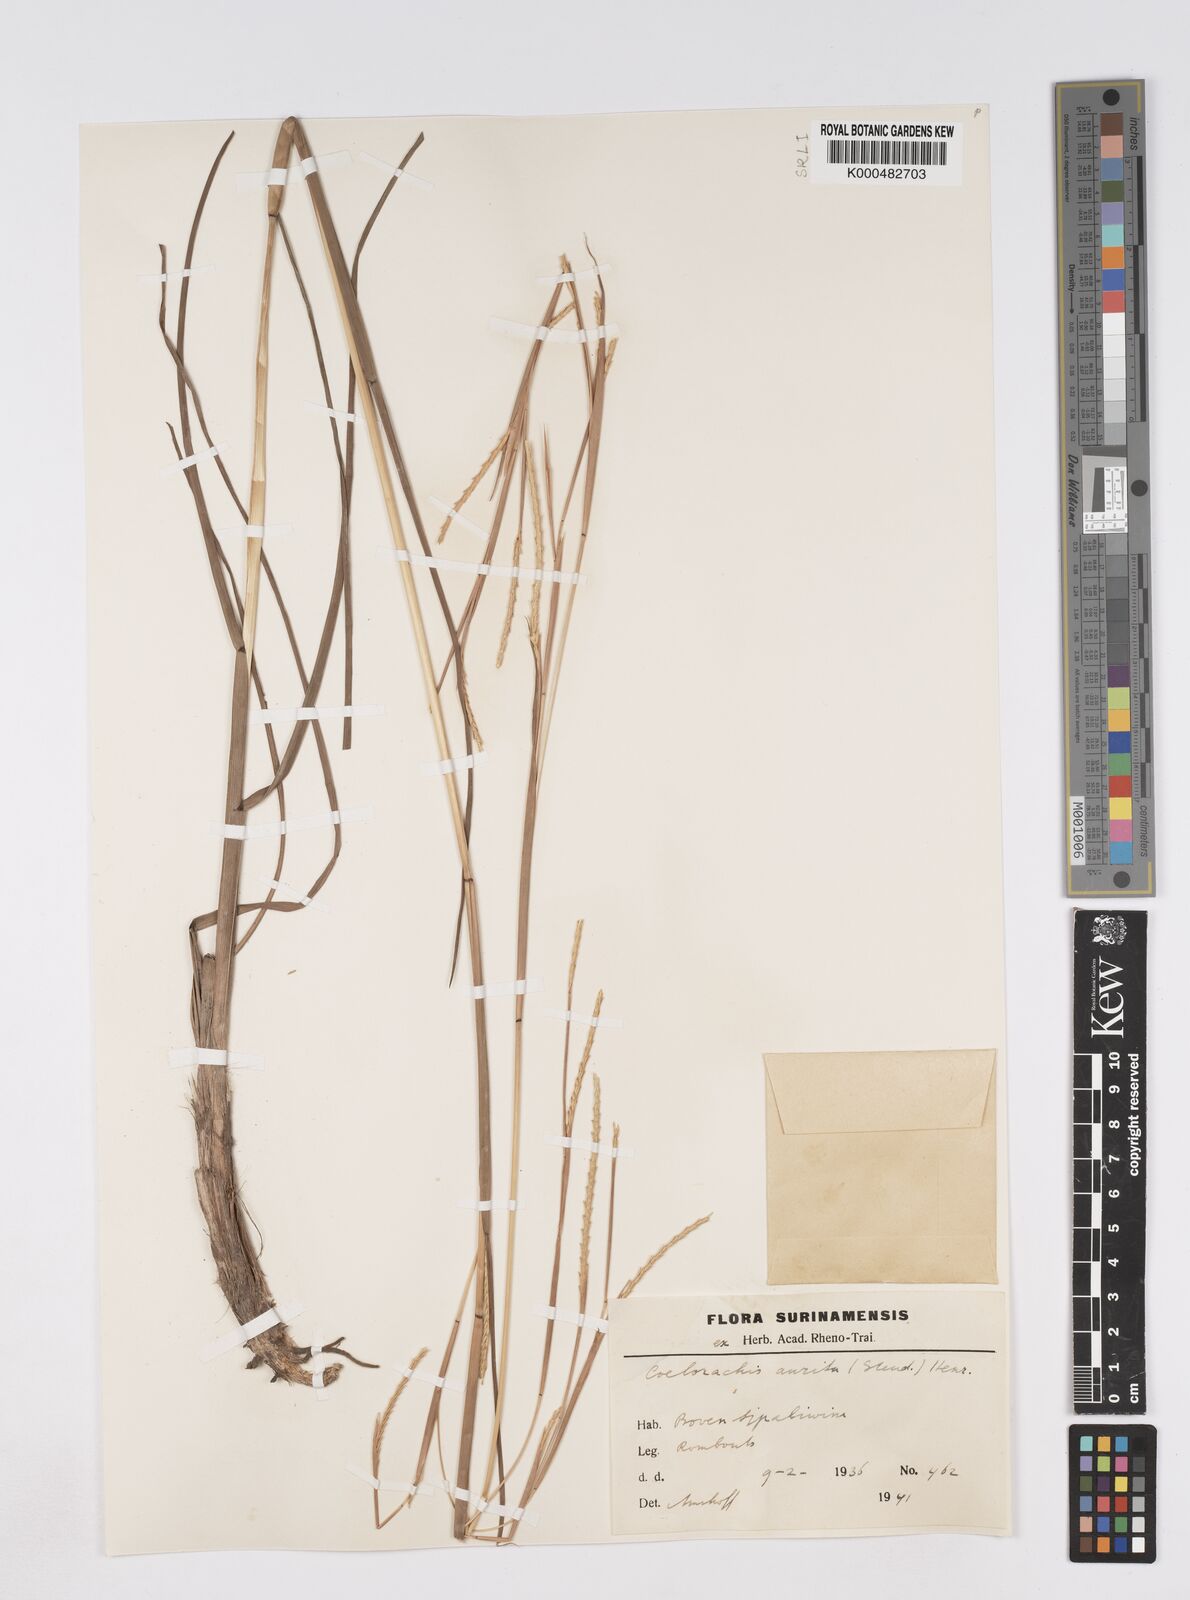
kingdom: Plantae
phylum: Tracheophyta
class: Liliopsida
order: Poales
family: Poaceae
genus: Rottboellia
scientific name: Rottboellia aurita
